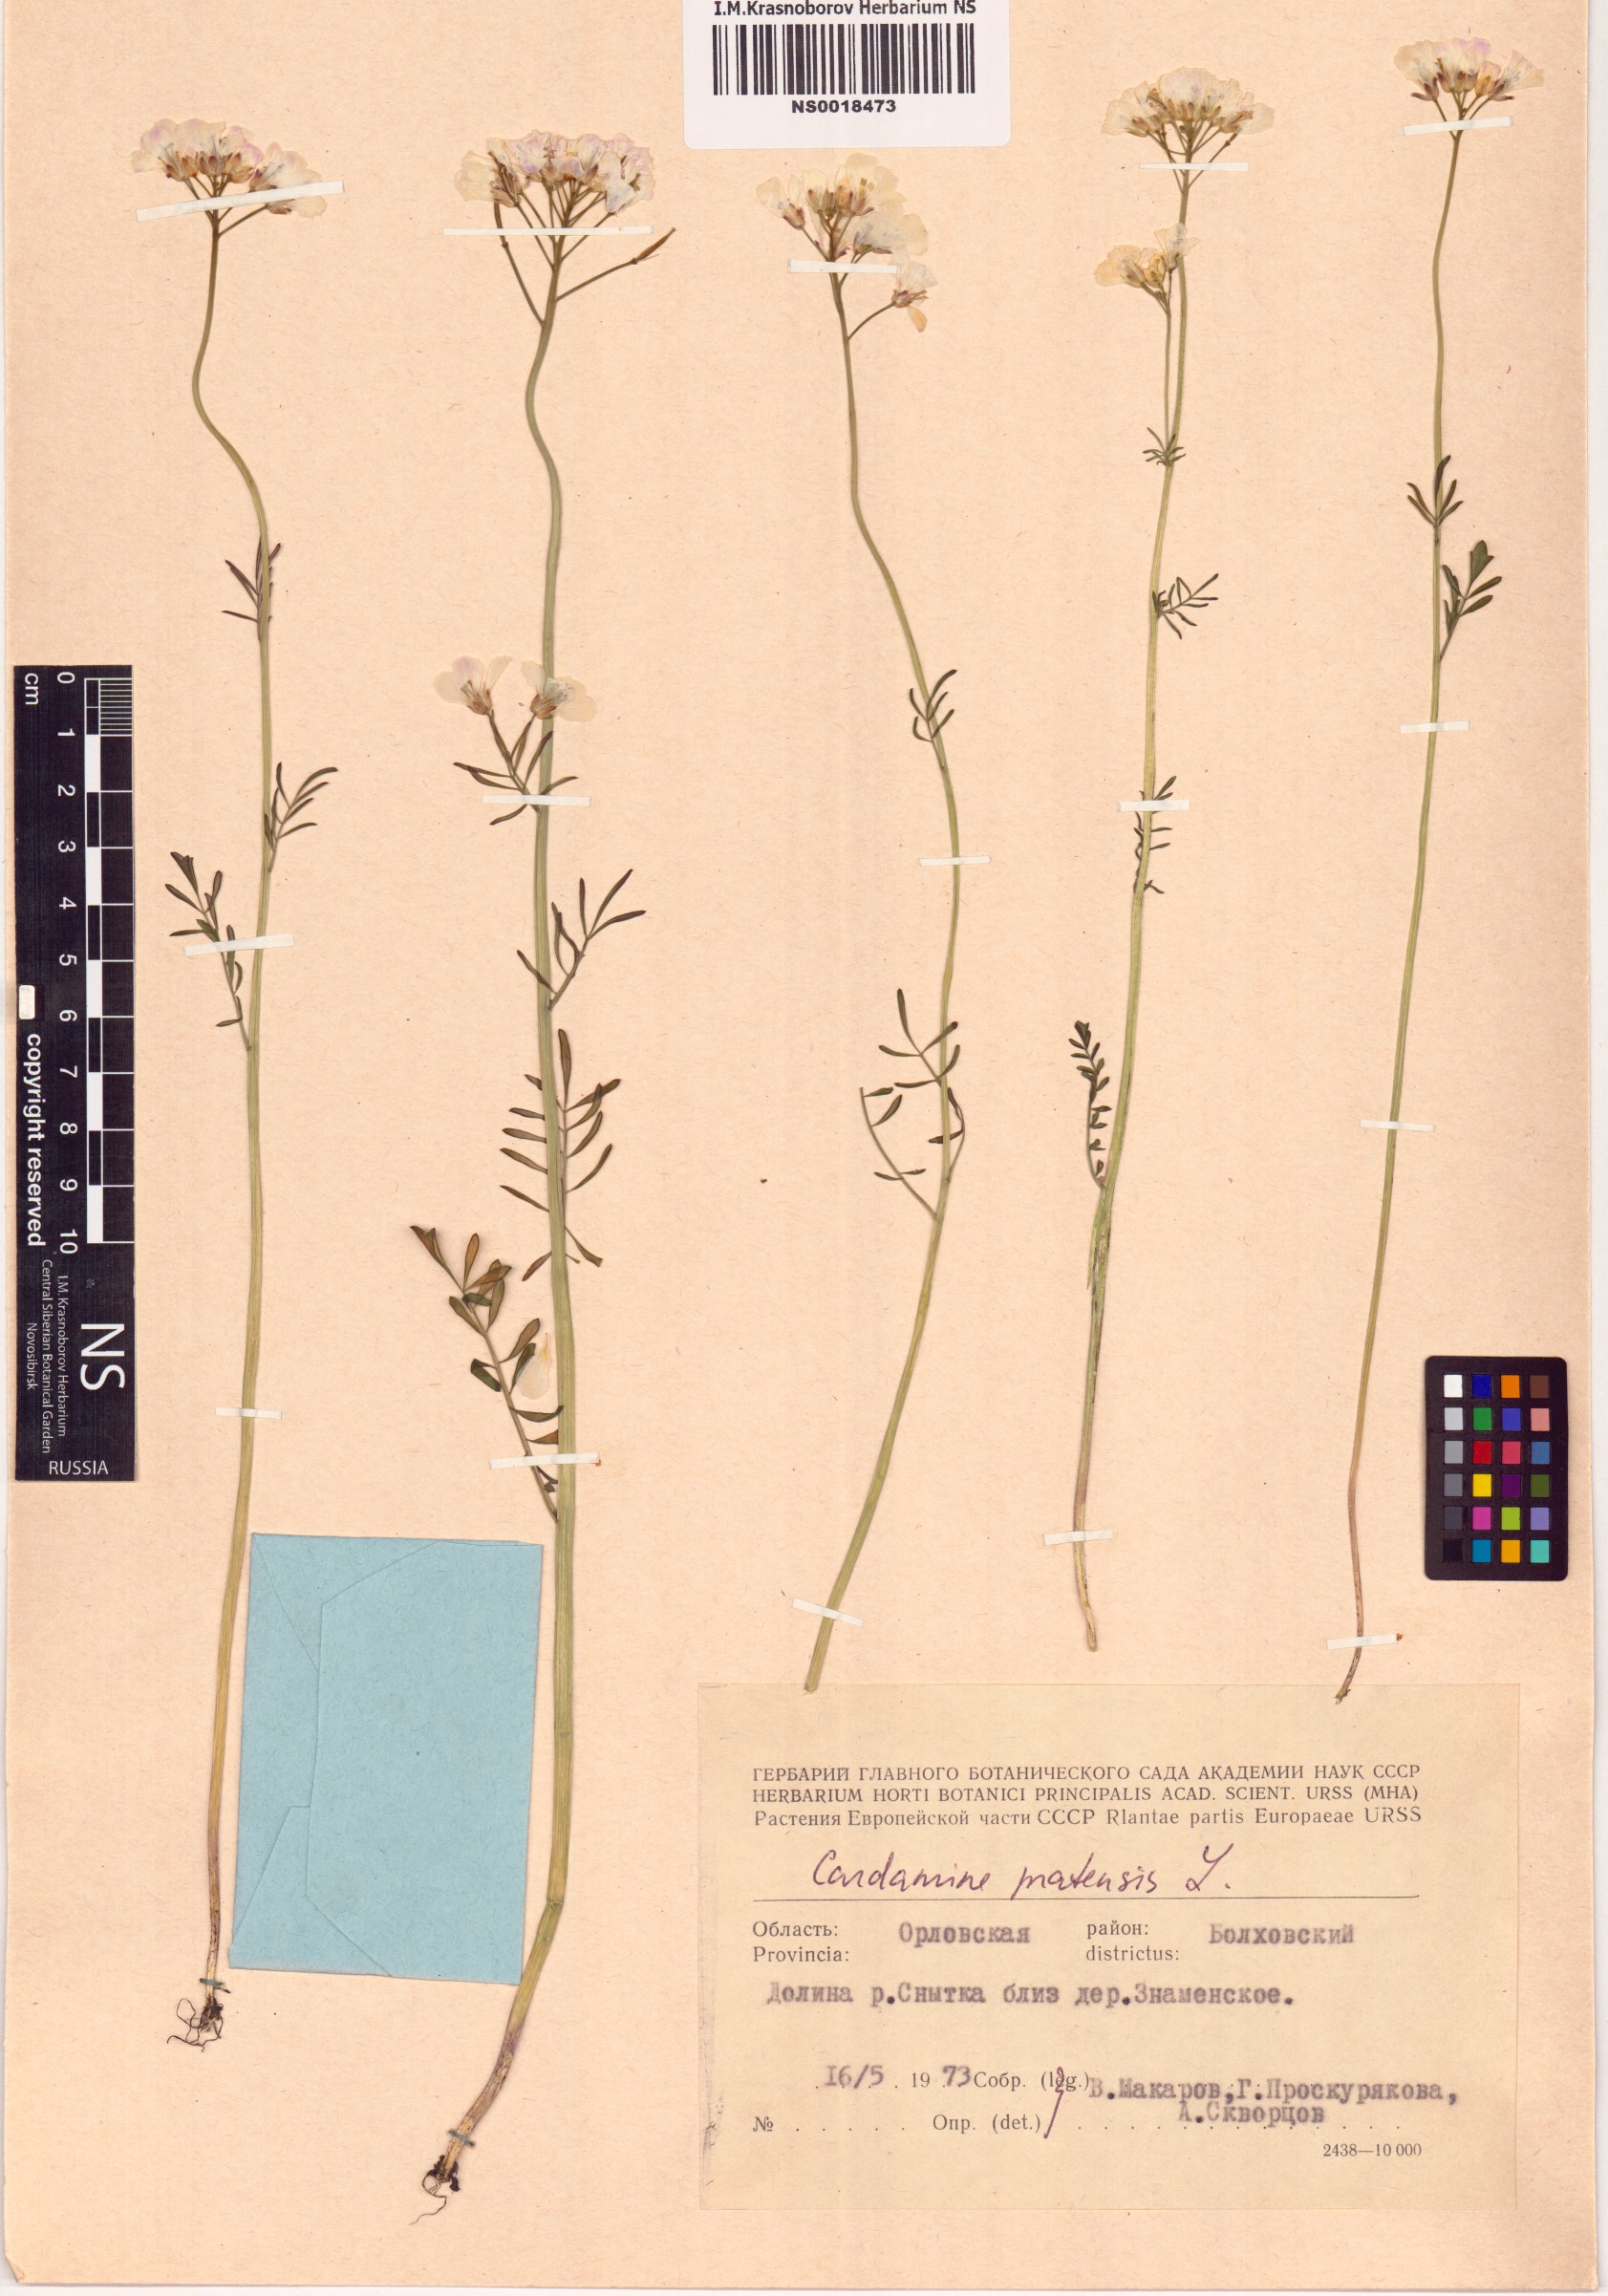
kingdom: Plantae
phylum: Tracheophyta
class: Magnoliopsida
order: Brassicales
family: Brassicaceae
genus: Cardamine
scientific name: Cardamine pratensis
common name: Cuckoo flower
